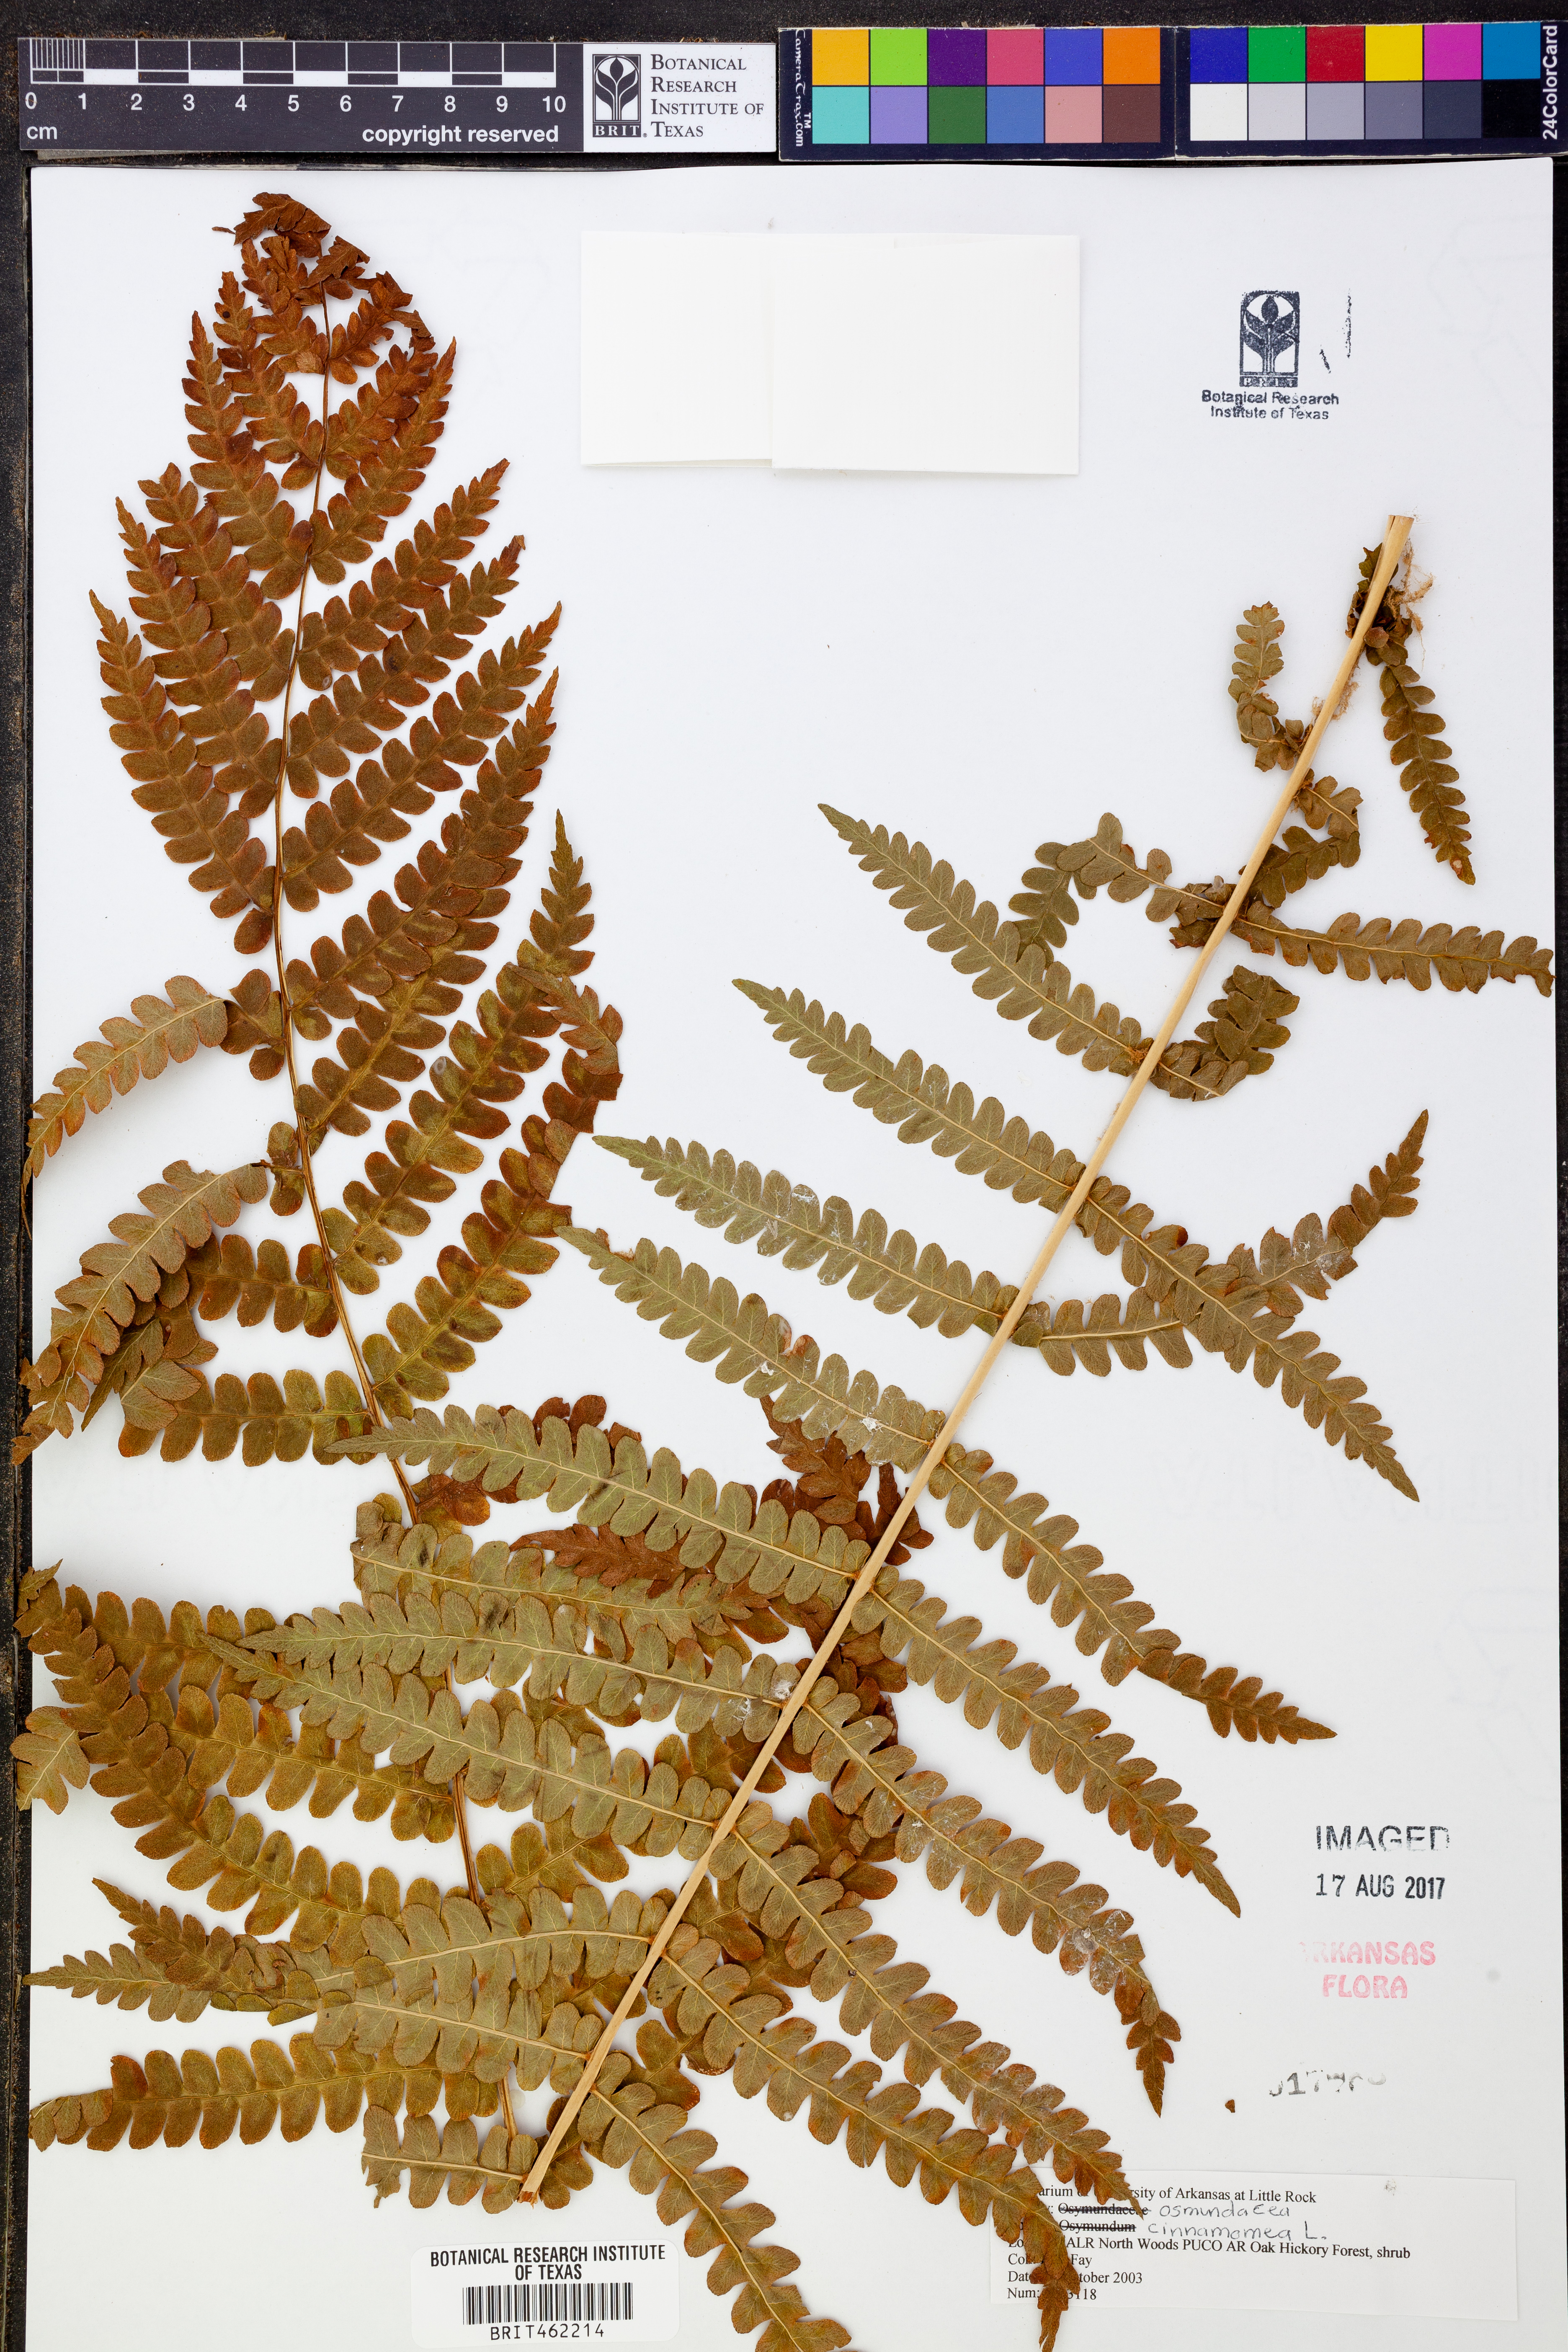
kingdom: Plantae
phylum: Tracheophyta
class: Polypodiopsida
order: Osmundales
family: Osmundaceae
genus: Osmundastrum
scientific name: Osmundastrum cinnamomeum
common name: Cinnamon fern
